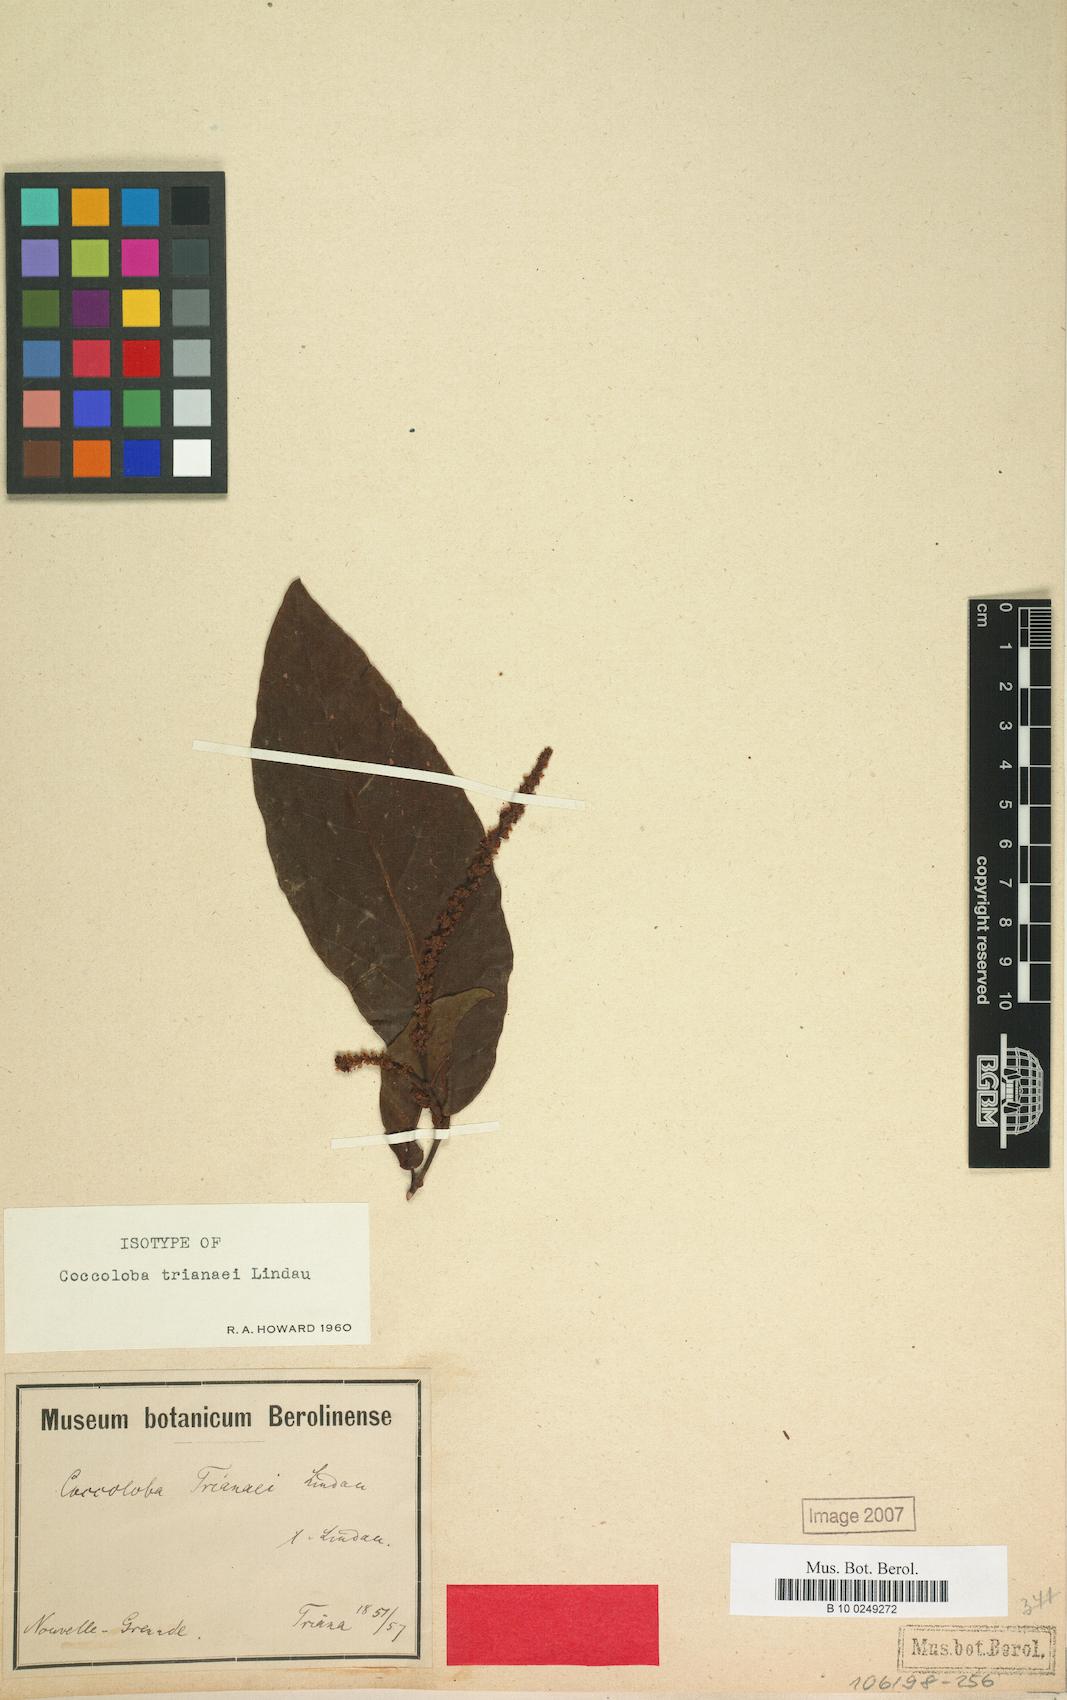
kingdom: Plantae
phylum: Tracheophyta
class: Magnoliopsida
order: Caryophyllales
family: Polygonaceae
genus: Coccoloba
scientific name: Coccoloba venosa
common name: Sugary grape
